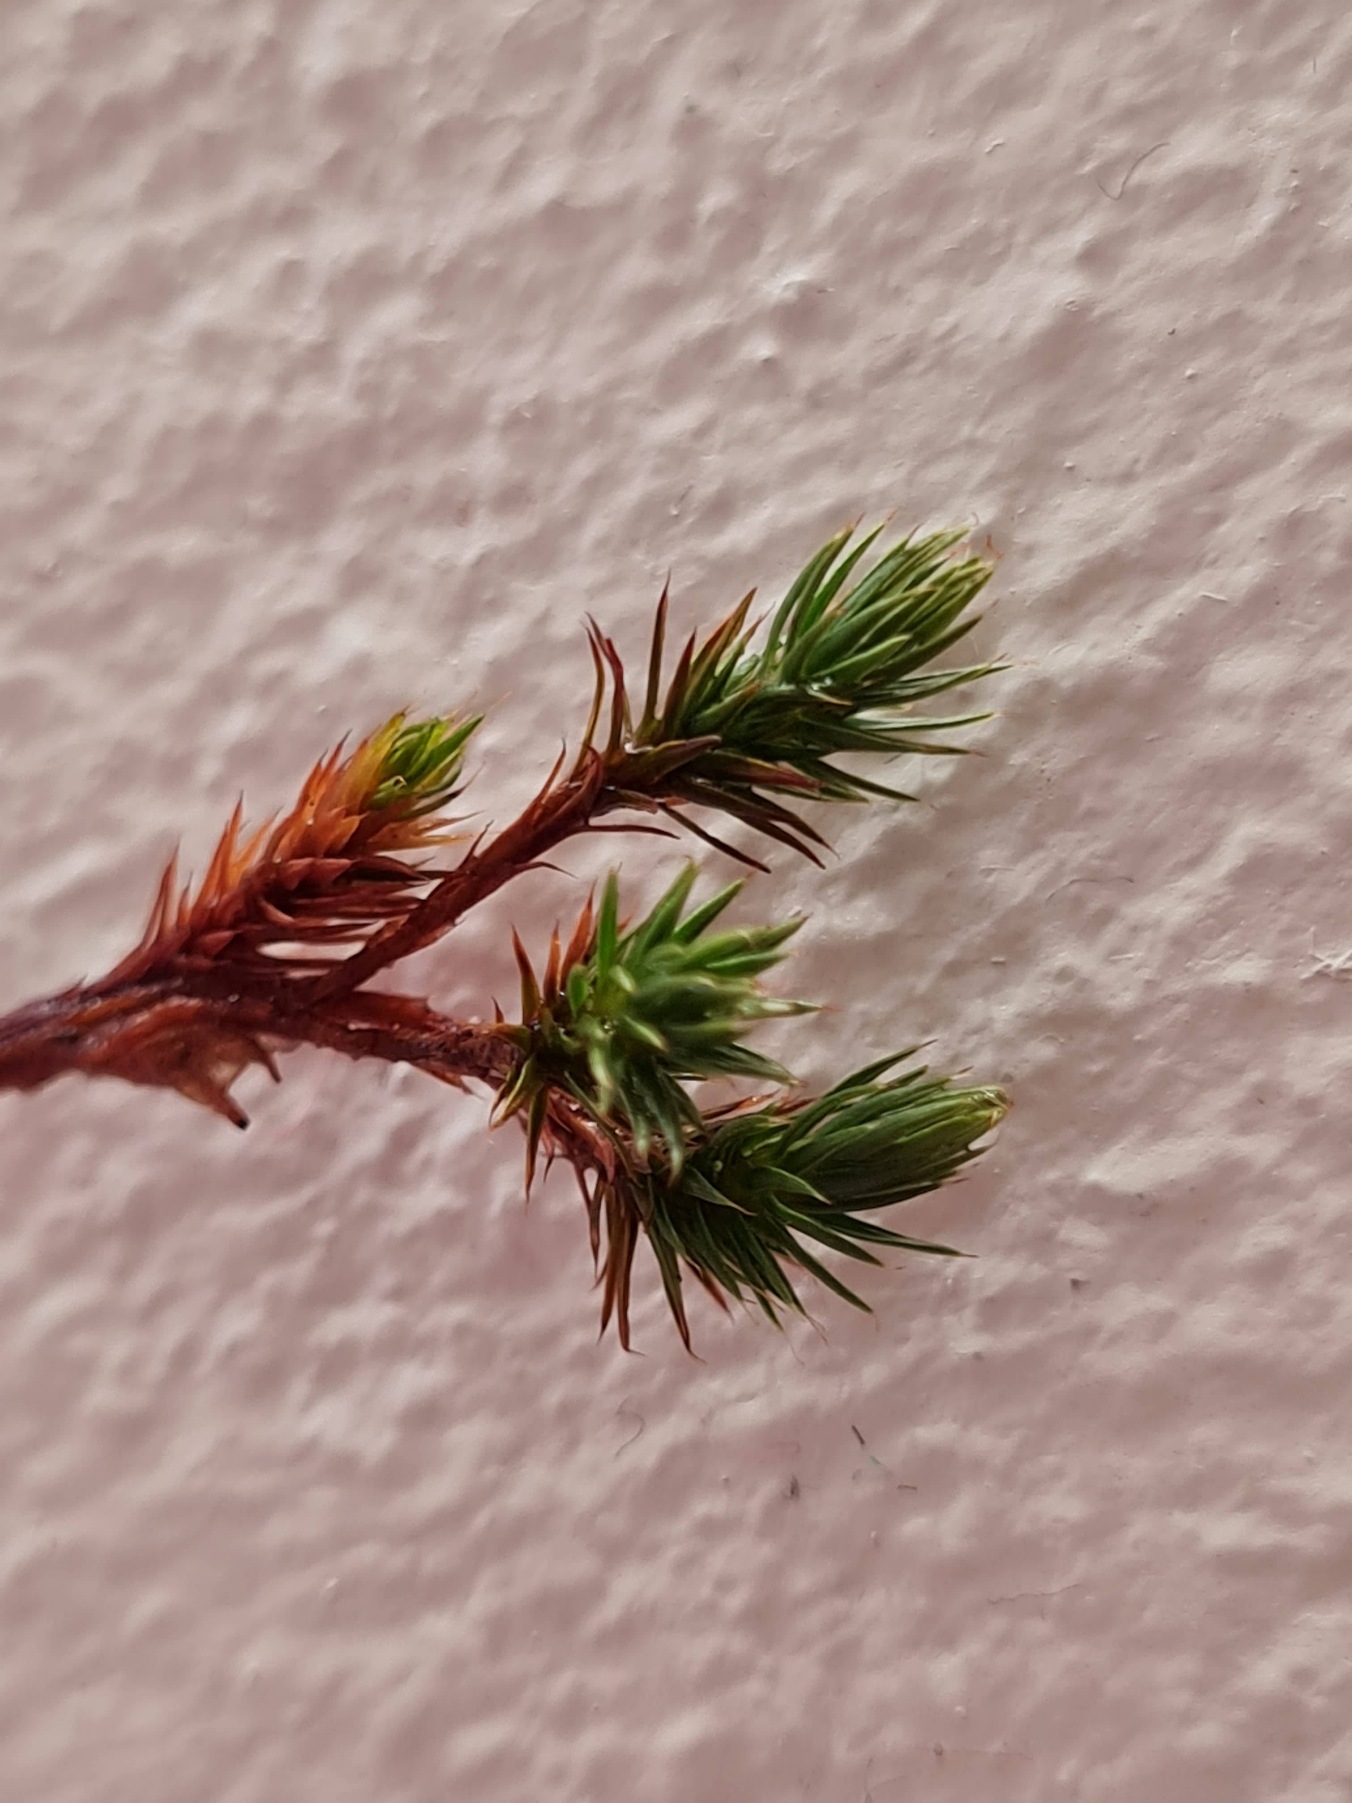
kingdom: Plantae
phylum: Bryophyta
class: Polytrichopsida
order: Polytrichales
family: Polytrichaceae
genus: Polytrichum
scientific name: Polytrichum juniperinum
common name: Ene-jomfruhår
